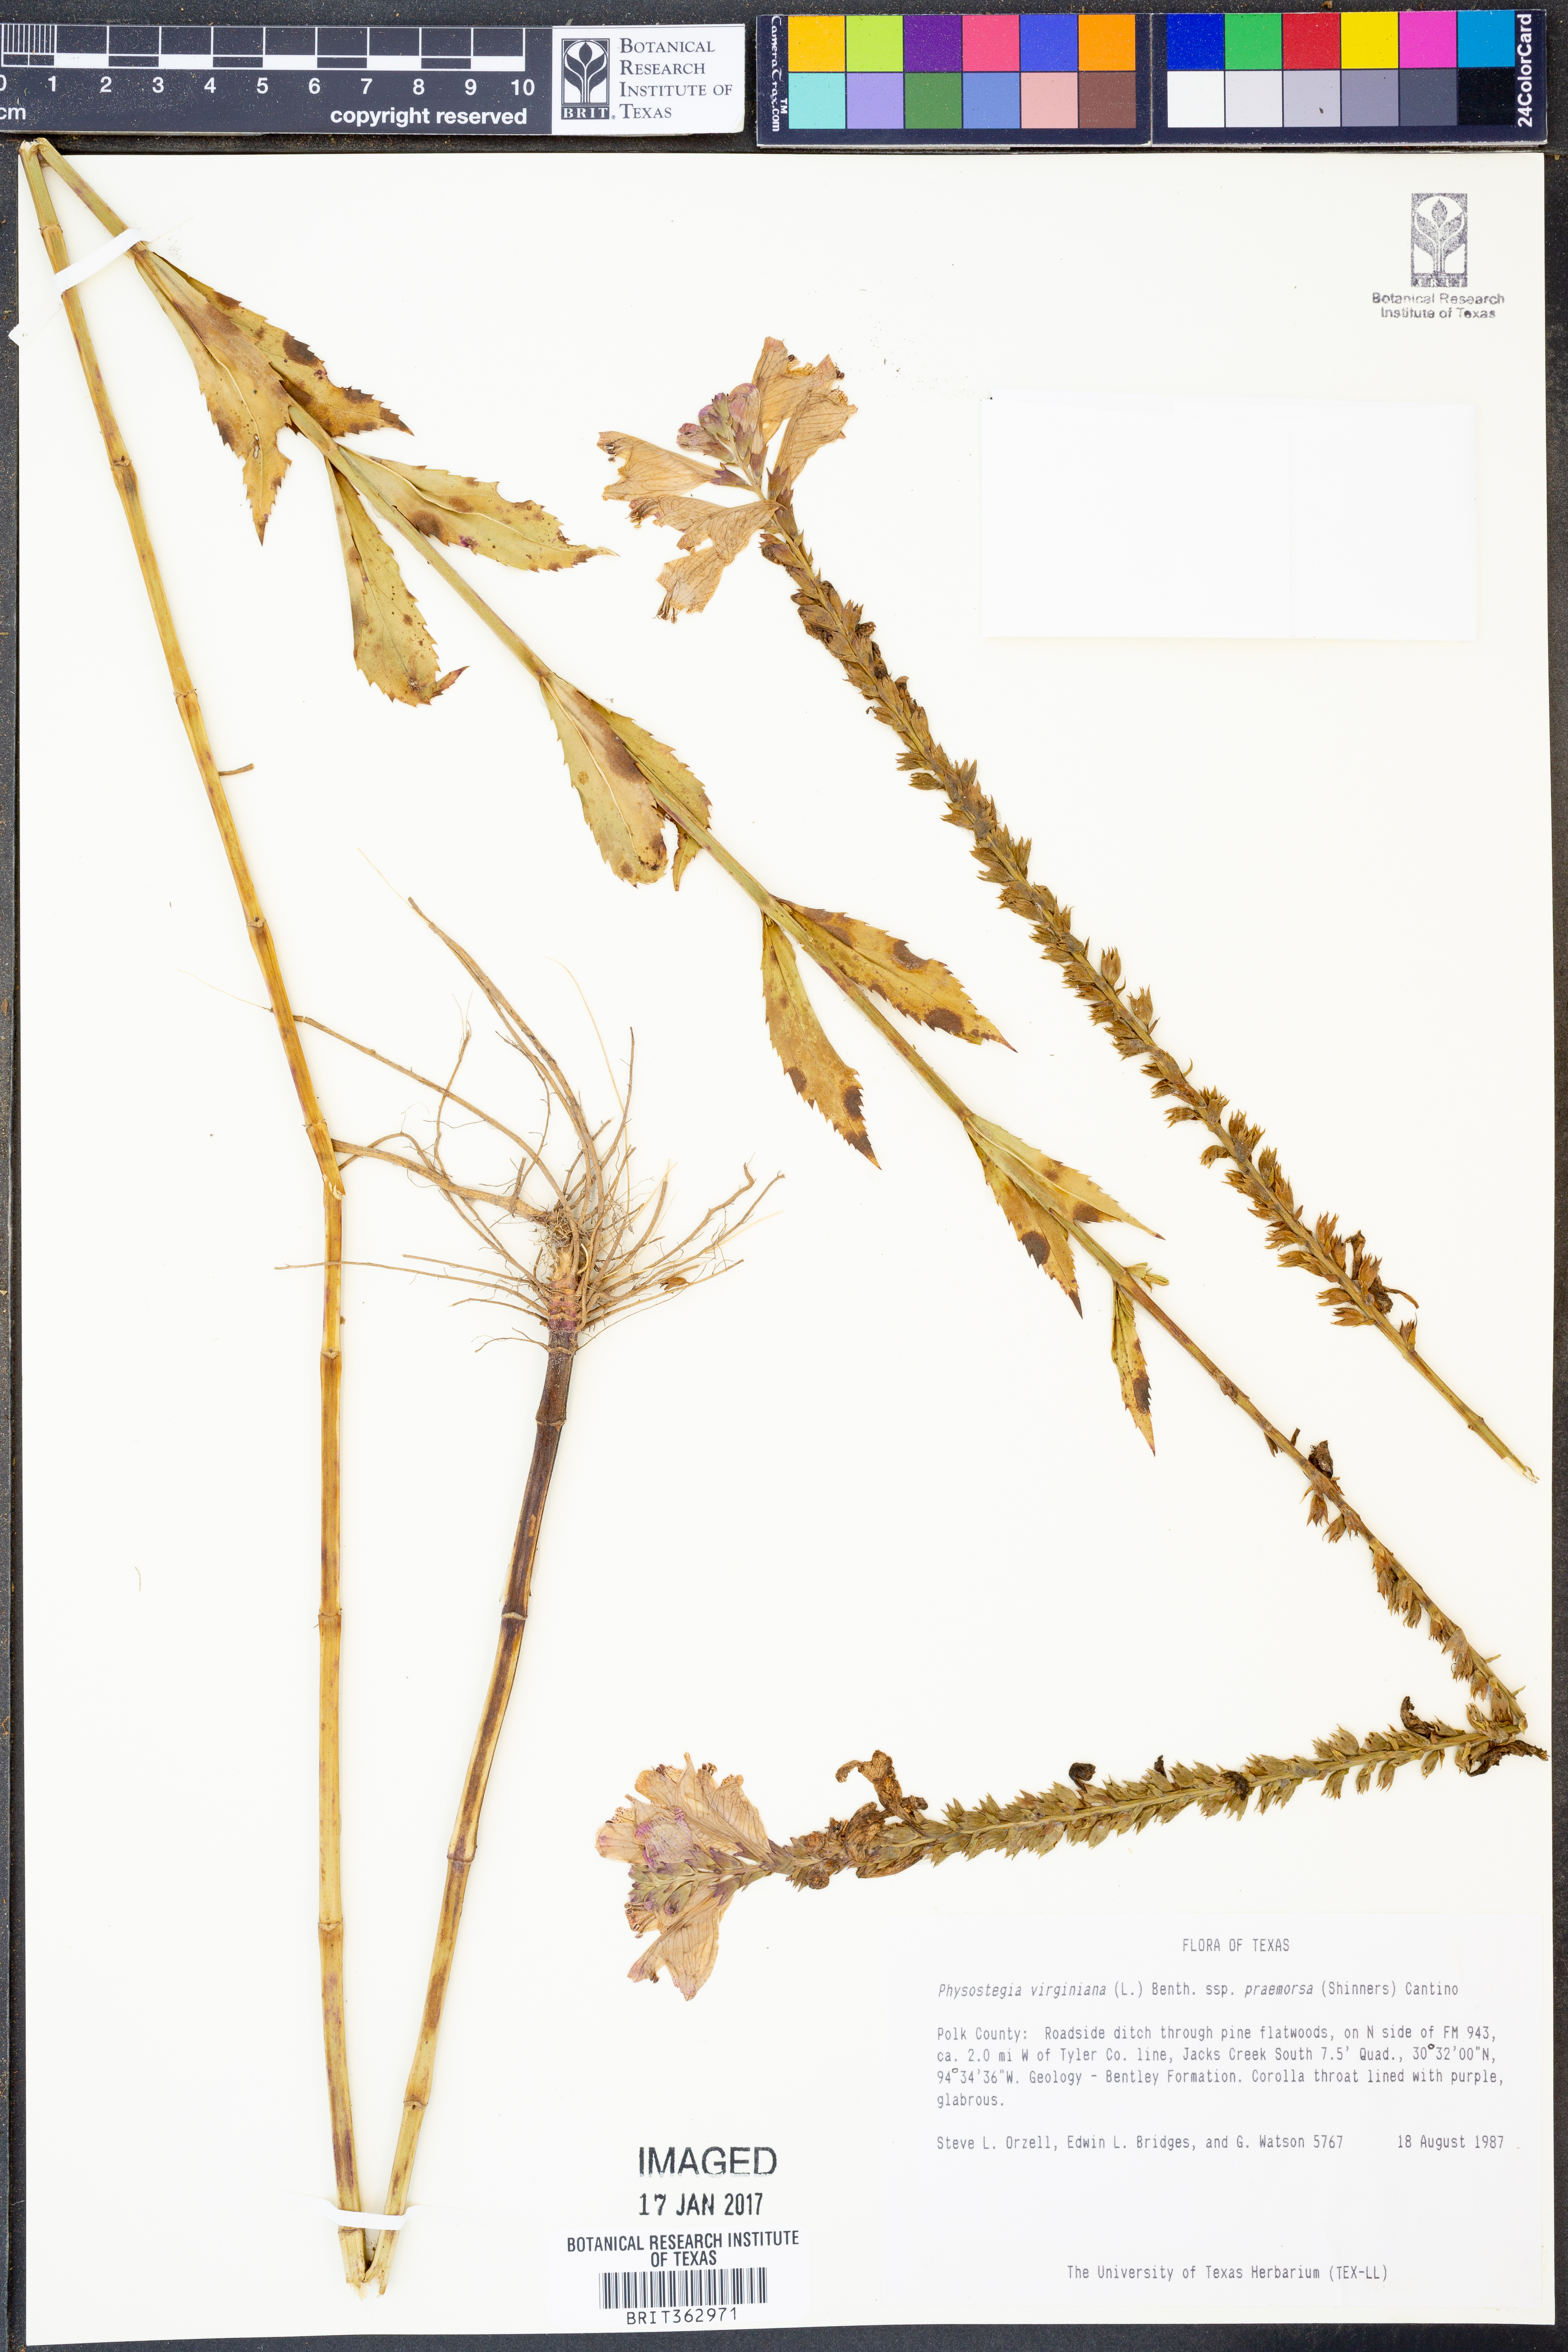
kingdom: Plantae
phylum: Tracheophyta
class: Magnoliopsida
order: Lamiales
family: Lamiaceae
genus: Physostegia
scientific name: Physostegia virginiana
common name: Obedient-plant
